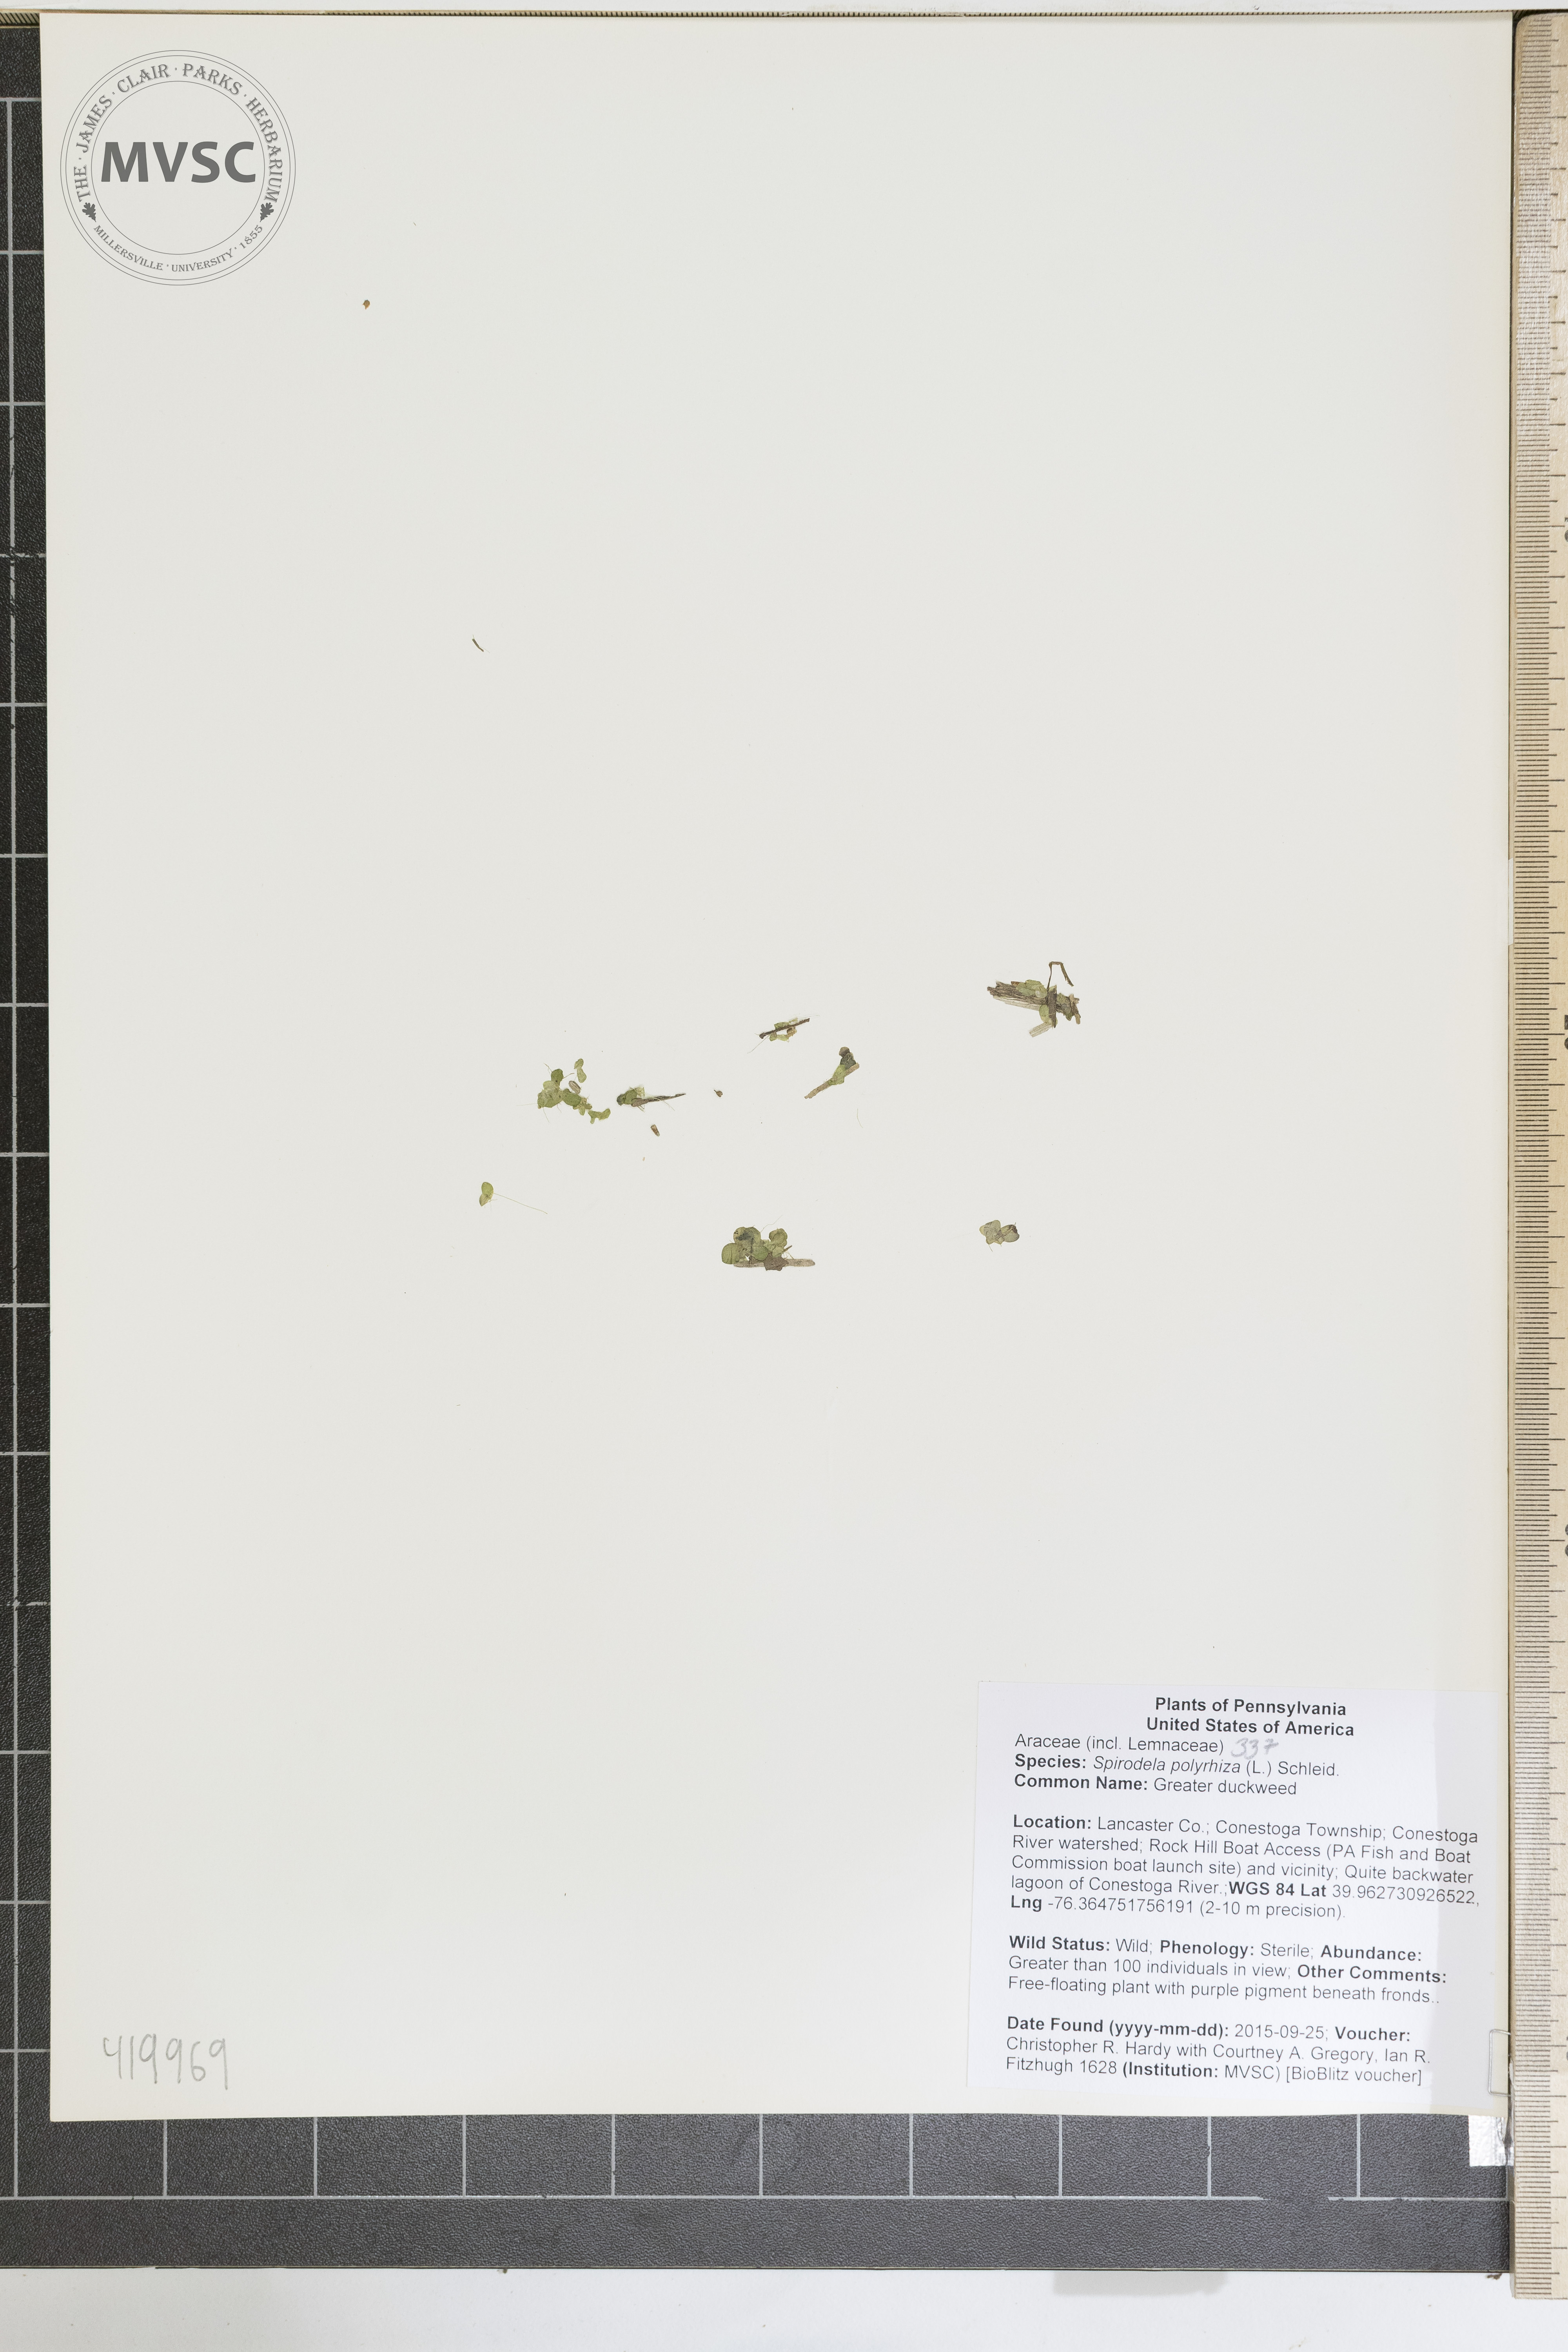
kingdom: Plantae
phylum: Tracheophyta
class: Liliopsida
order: Alismatales
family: Araceae
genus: Spirodela
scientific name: Spirodela polyrhiza
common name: Greater duckweed
